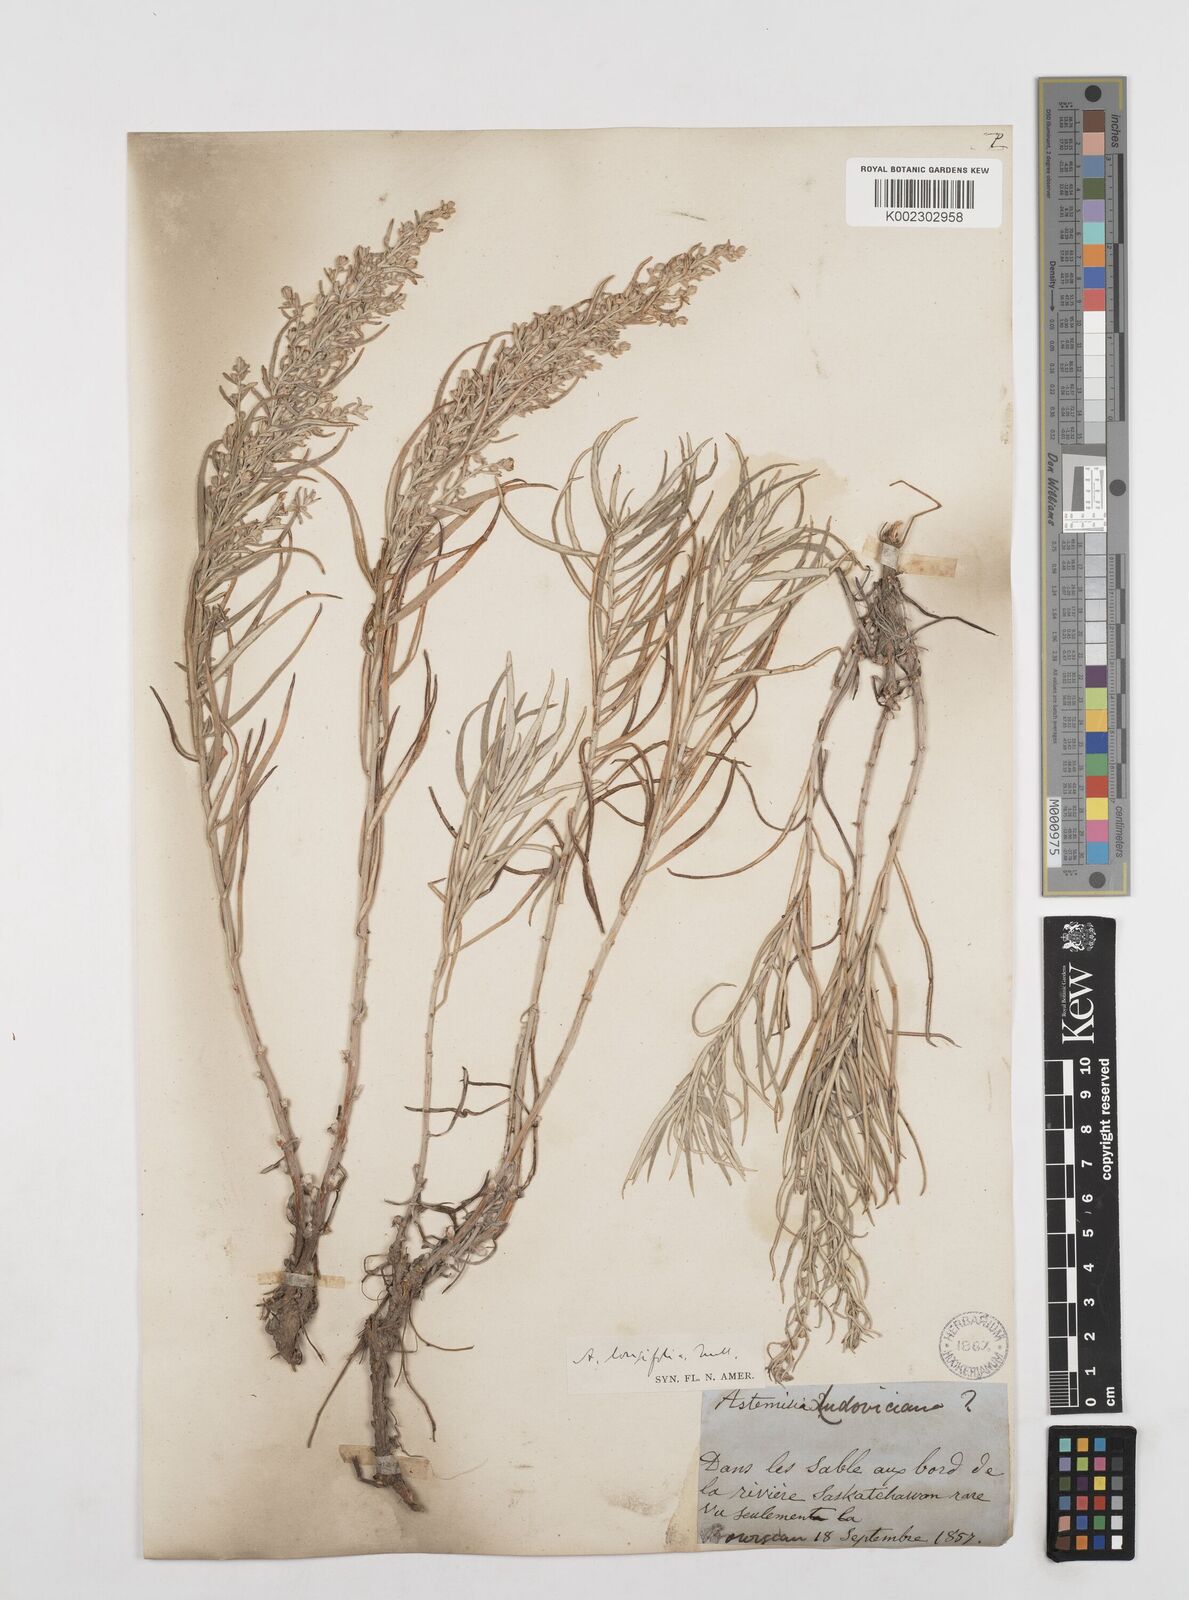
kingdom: Plantae
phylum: Tracheophyta
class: Magnoliopsida
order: Asterales
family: Asteraceae
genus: Artemisia
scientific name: Artemisia longifolia
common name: Long-leaved mugwort
